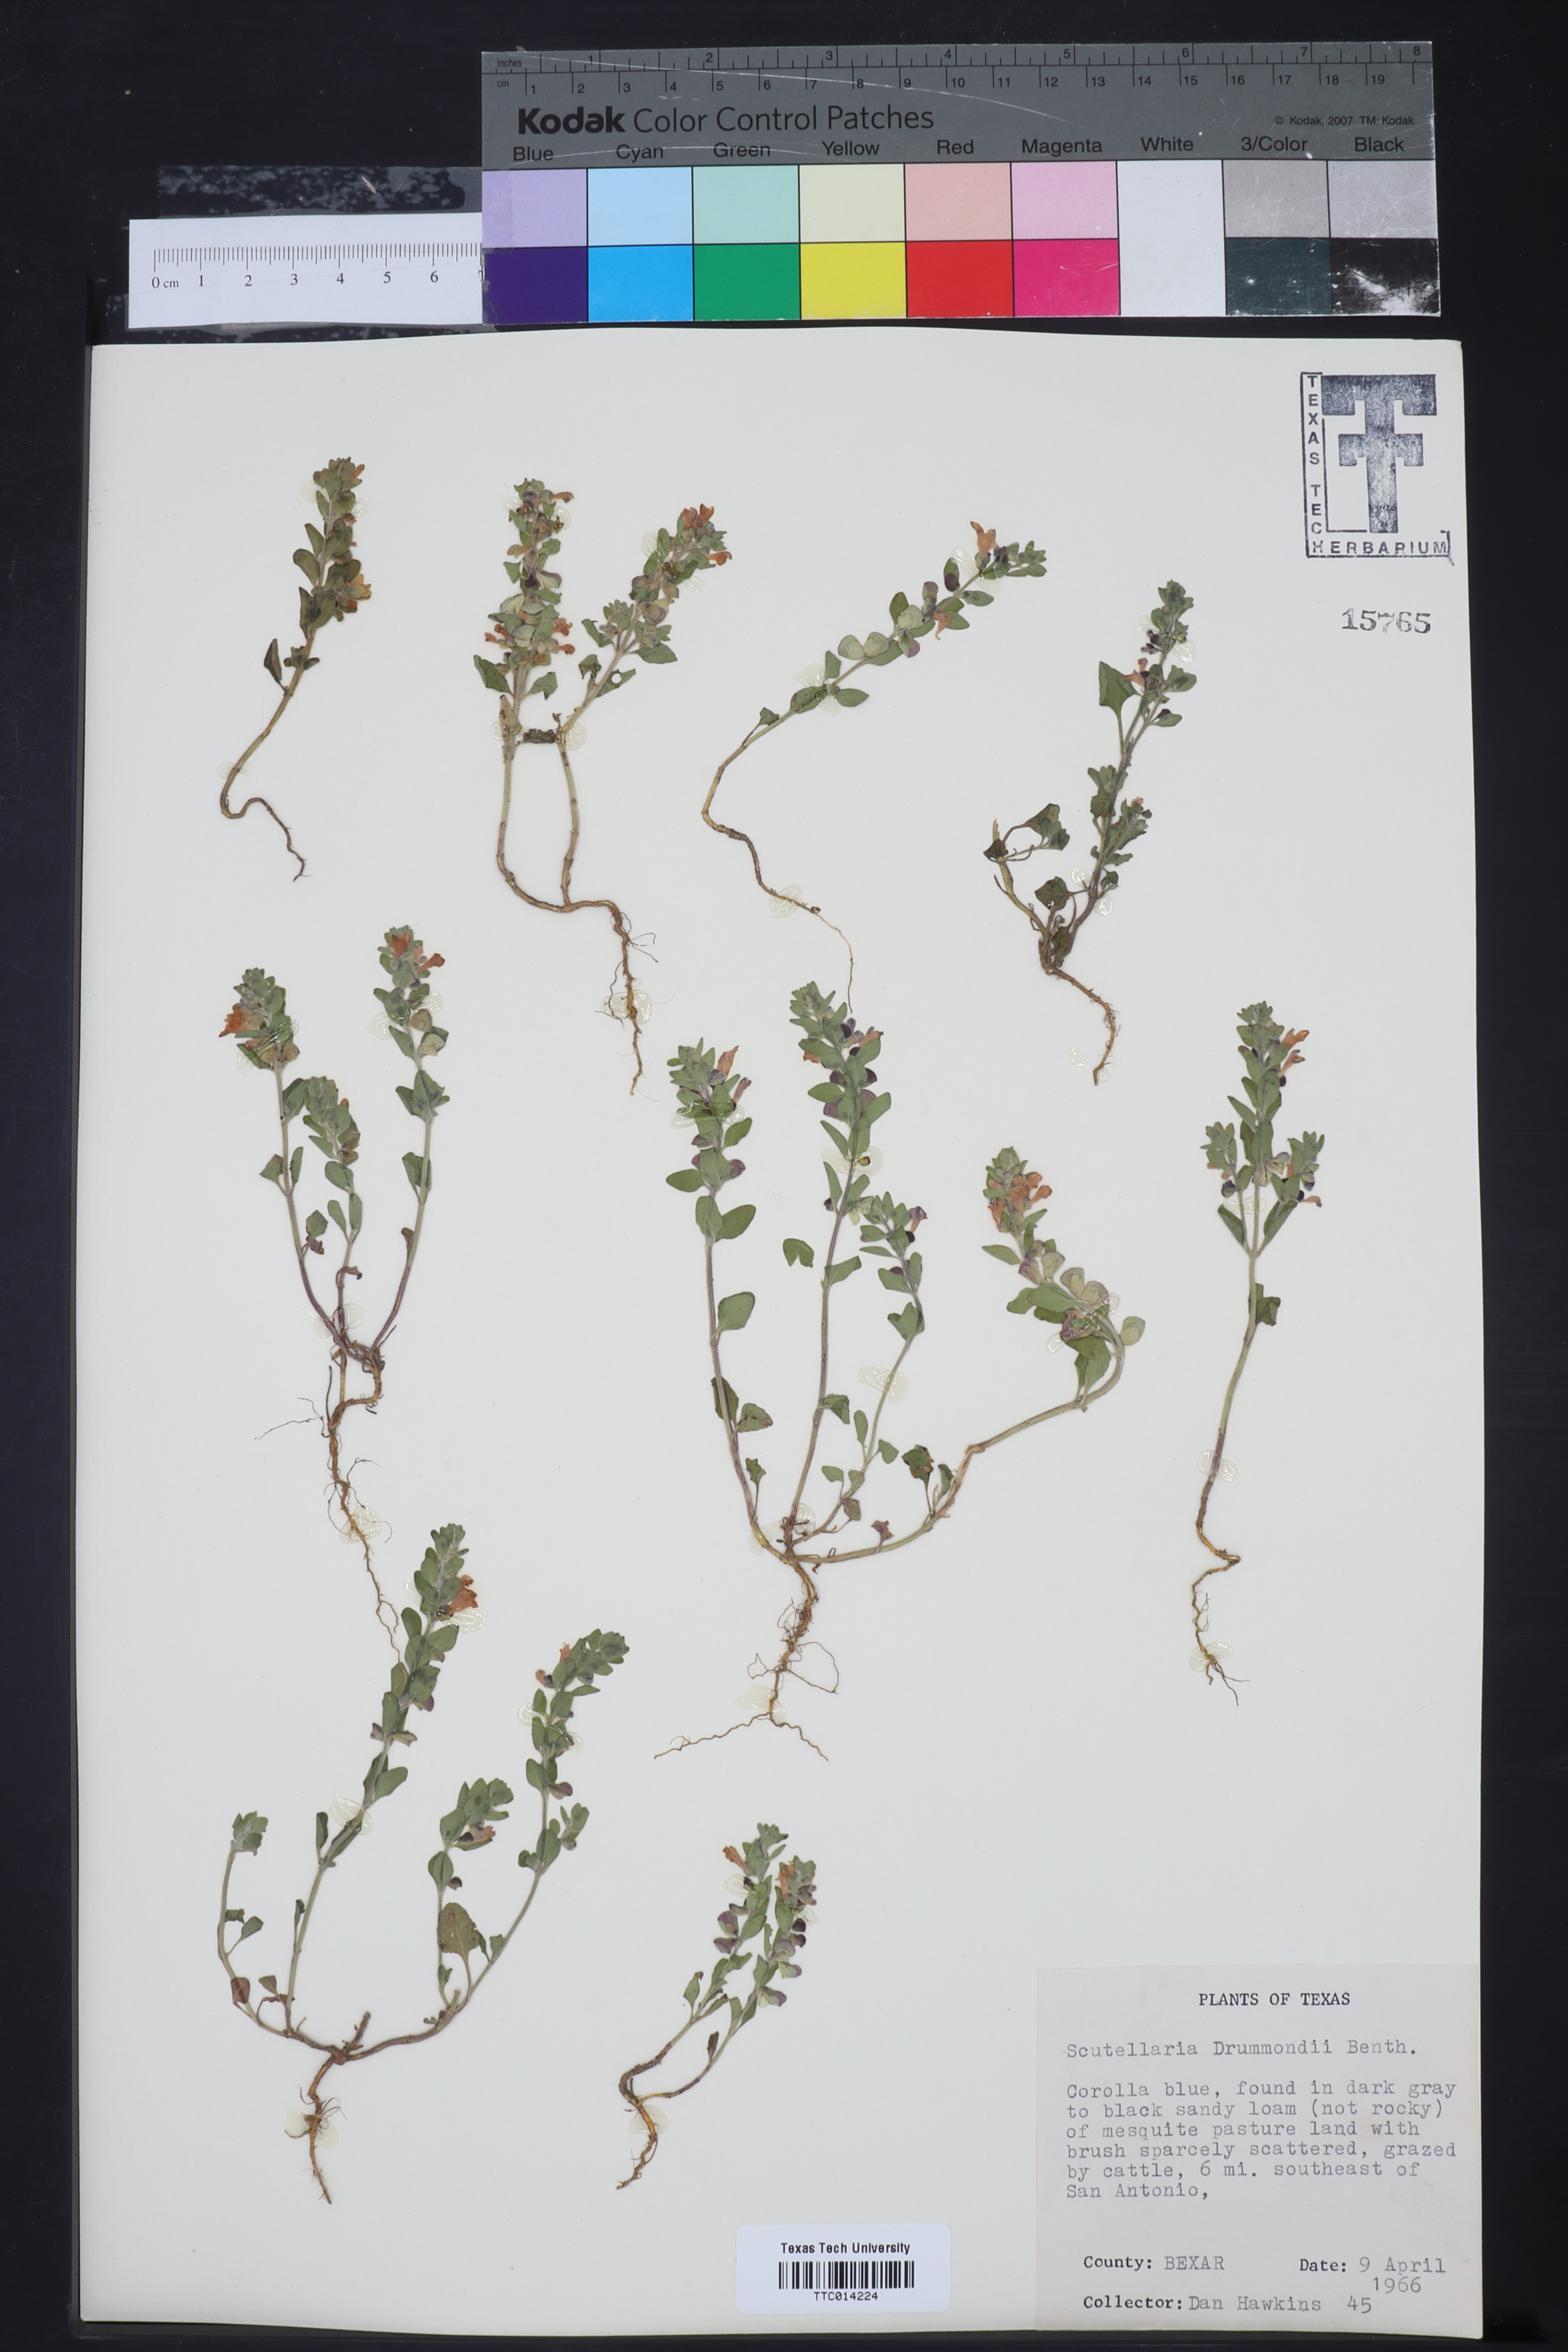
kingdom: Plantae
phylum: Tracheophyta
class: Magnoliopsida
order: Lamiales
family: Lamiaceae
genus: Scutellaria
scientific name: Scutellaria drummondii
